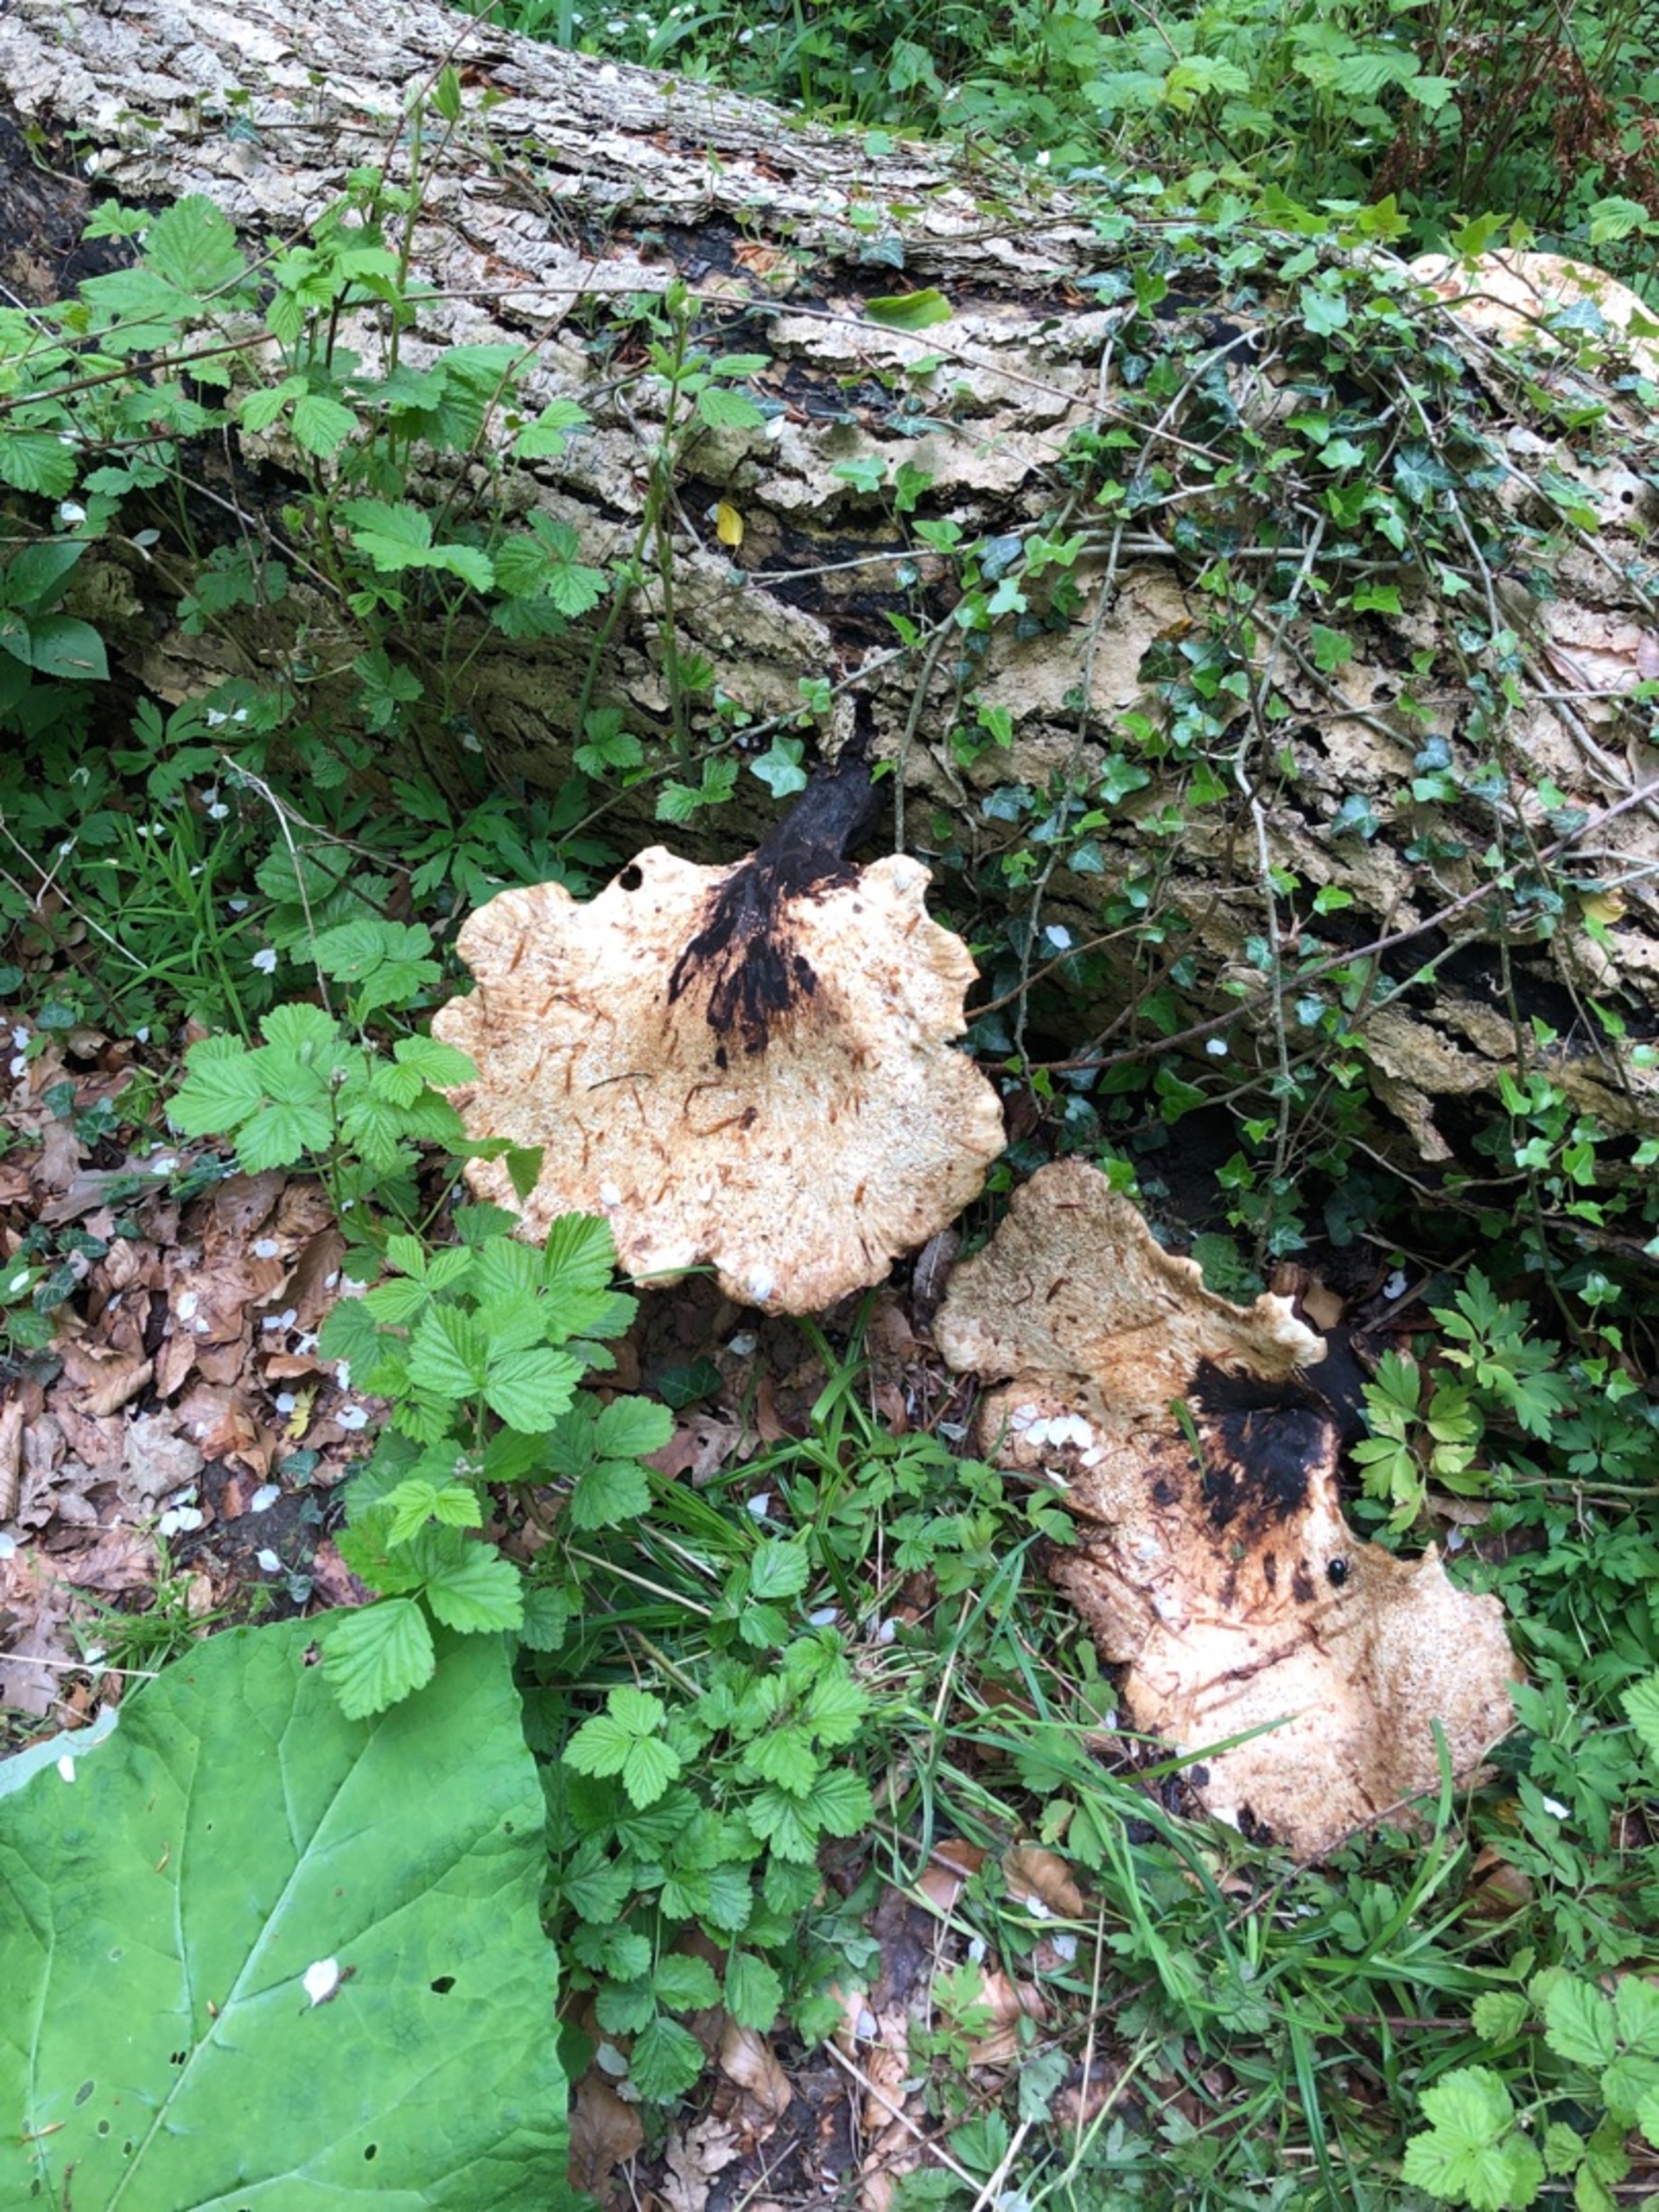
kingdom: Fungi
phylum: Basidiomycota
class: Agaricomycetes
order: Polyporales
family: Polyporaceae
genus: Cerioporus
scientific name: Cerioporus squamosus
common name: Skællet stilkporesvamp
